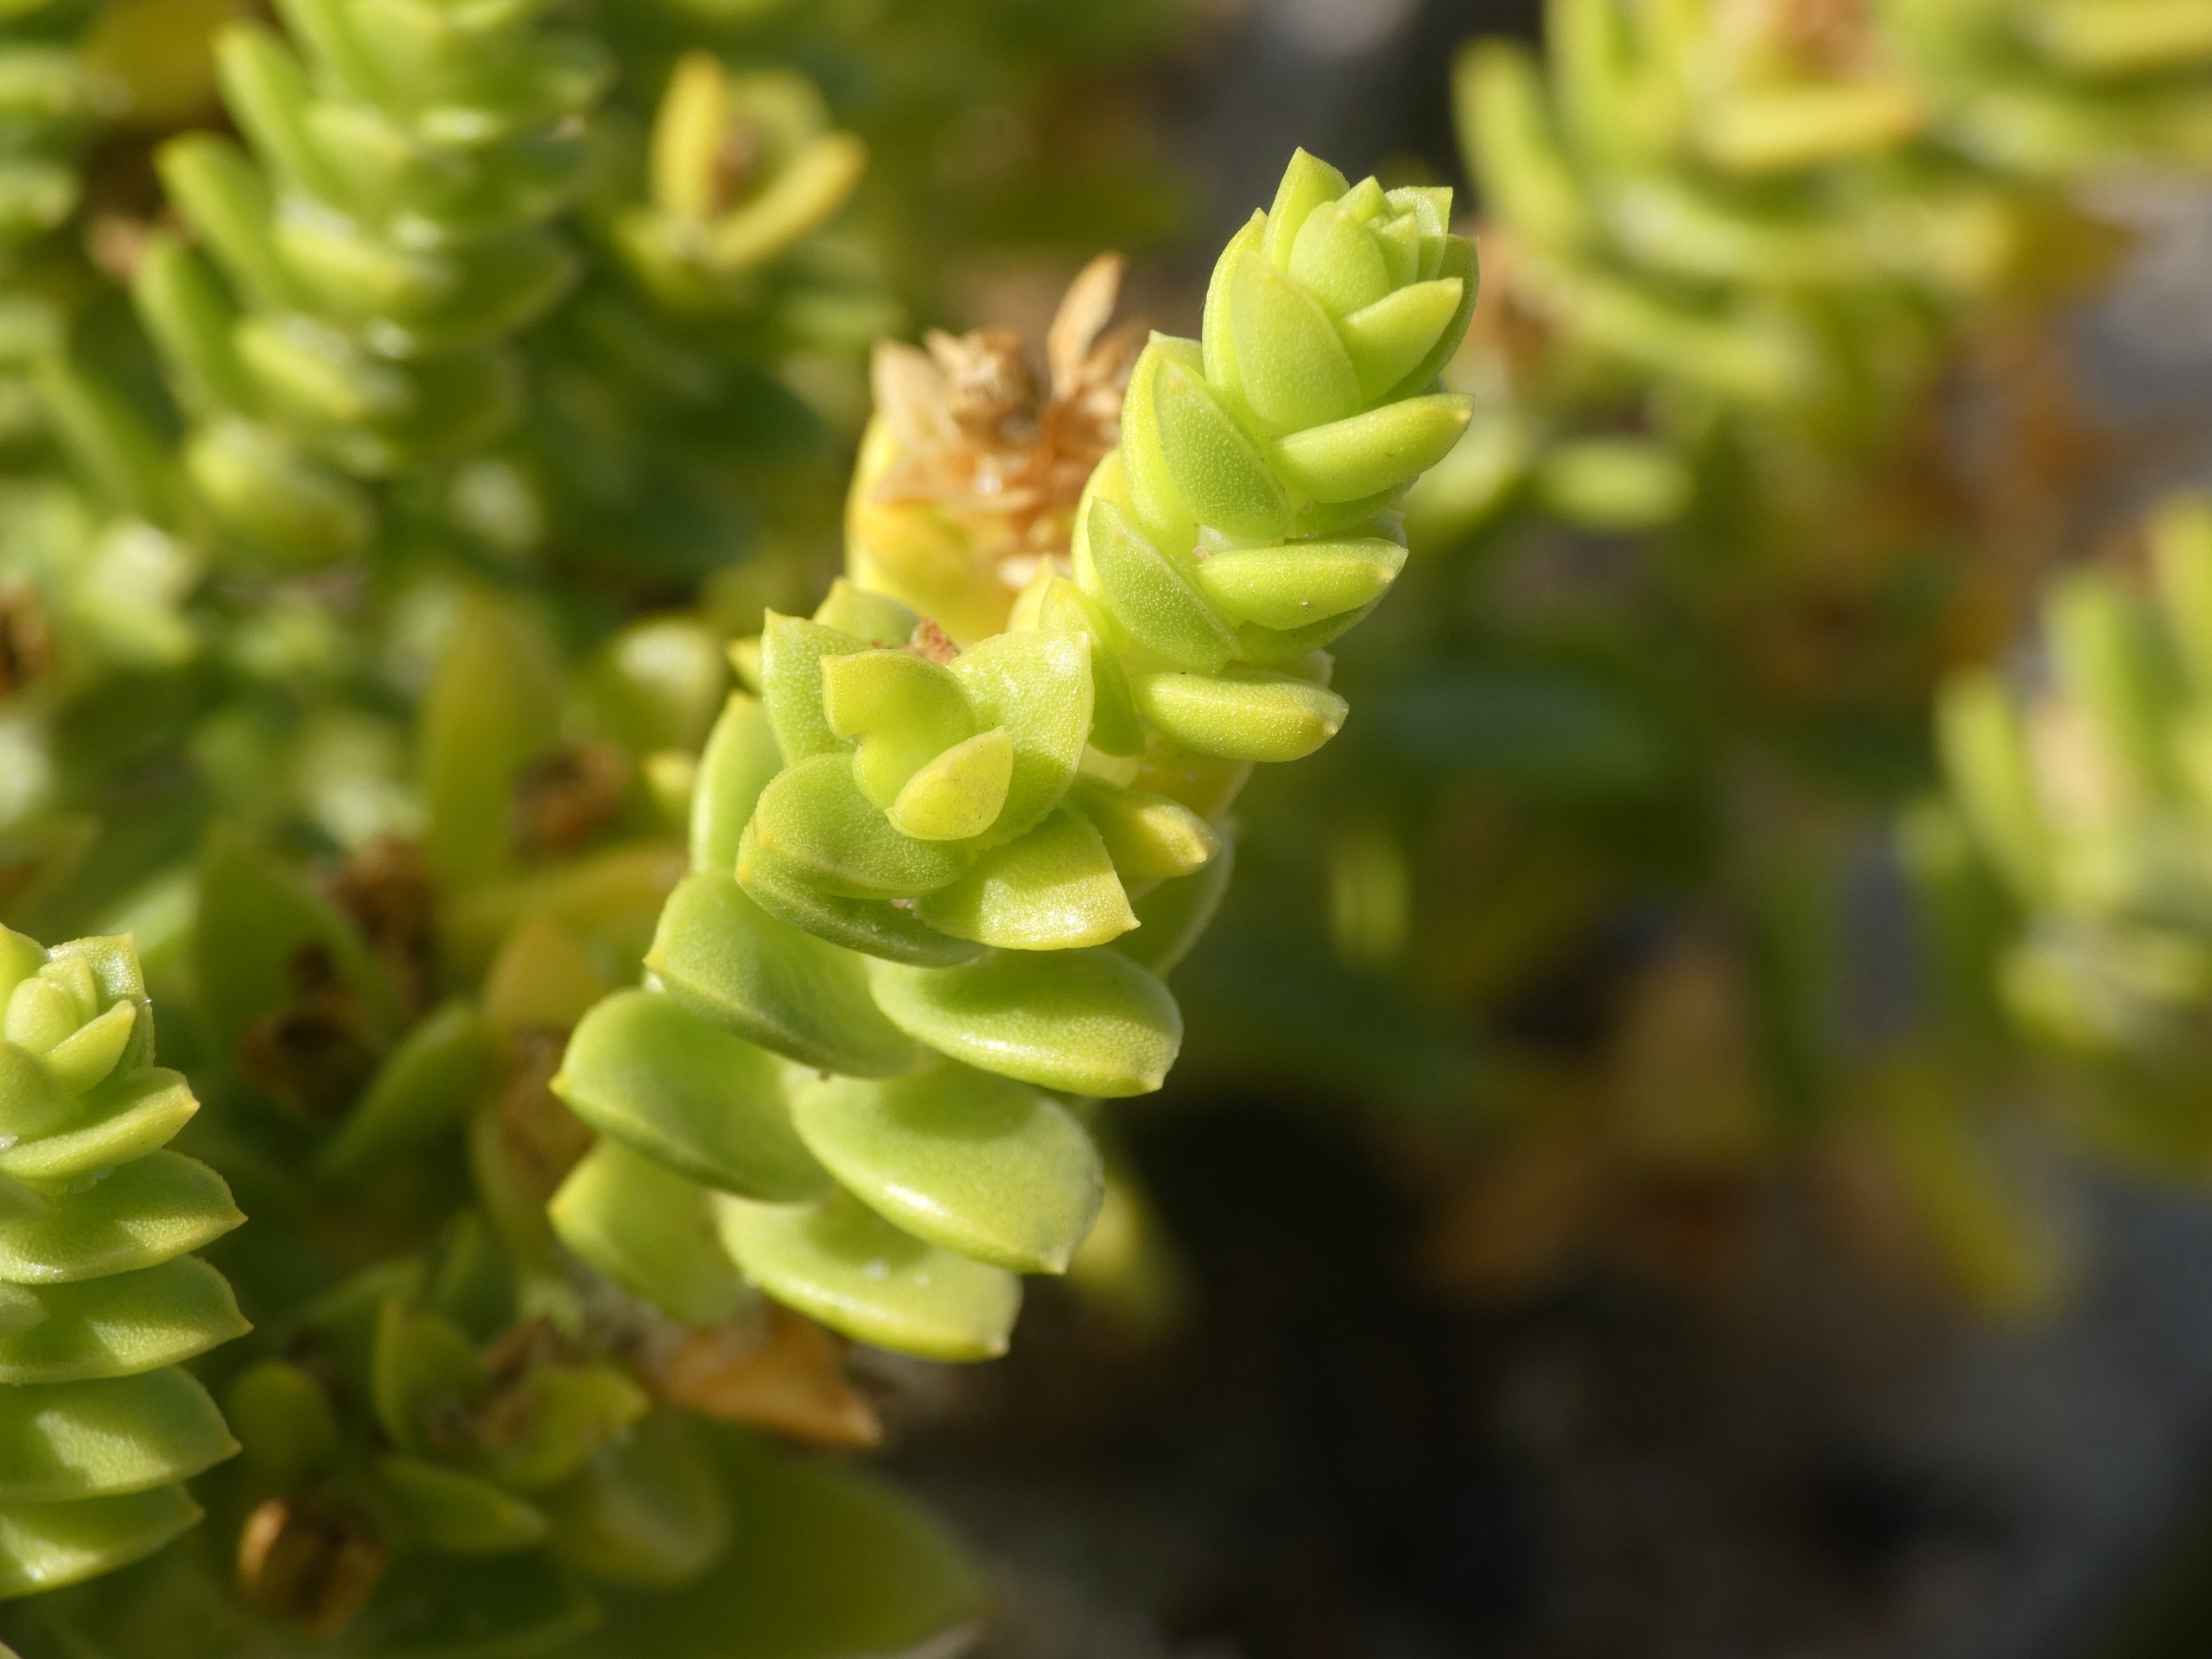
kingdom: Plantae
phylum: Tracheophyta
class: Magnoliopsida
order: Caryophyllales
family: Caryophyllaceae
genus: Honckenya
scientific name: Honckenya peploides
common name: Strandarve
